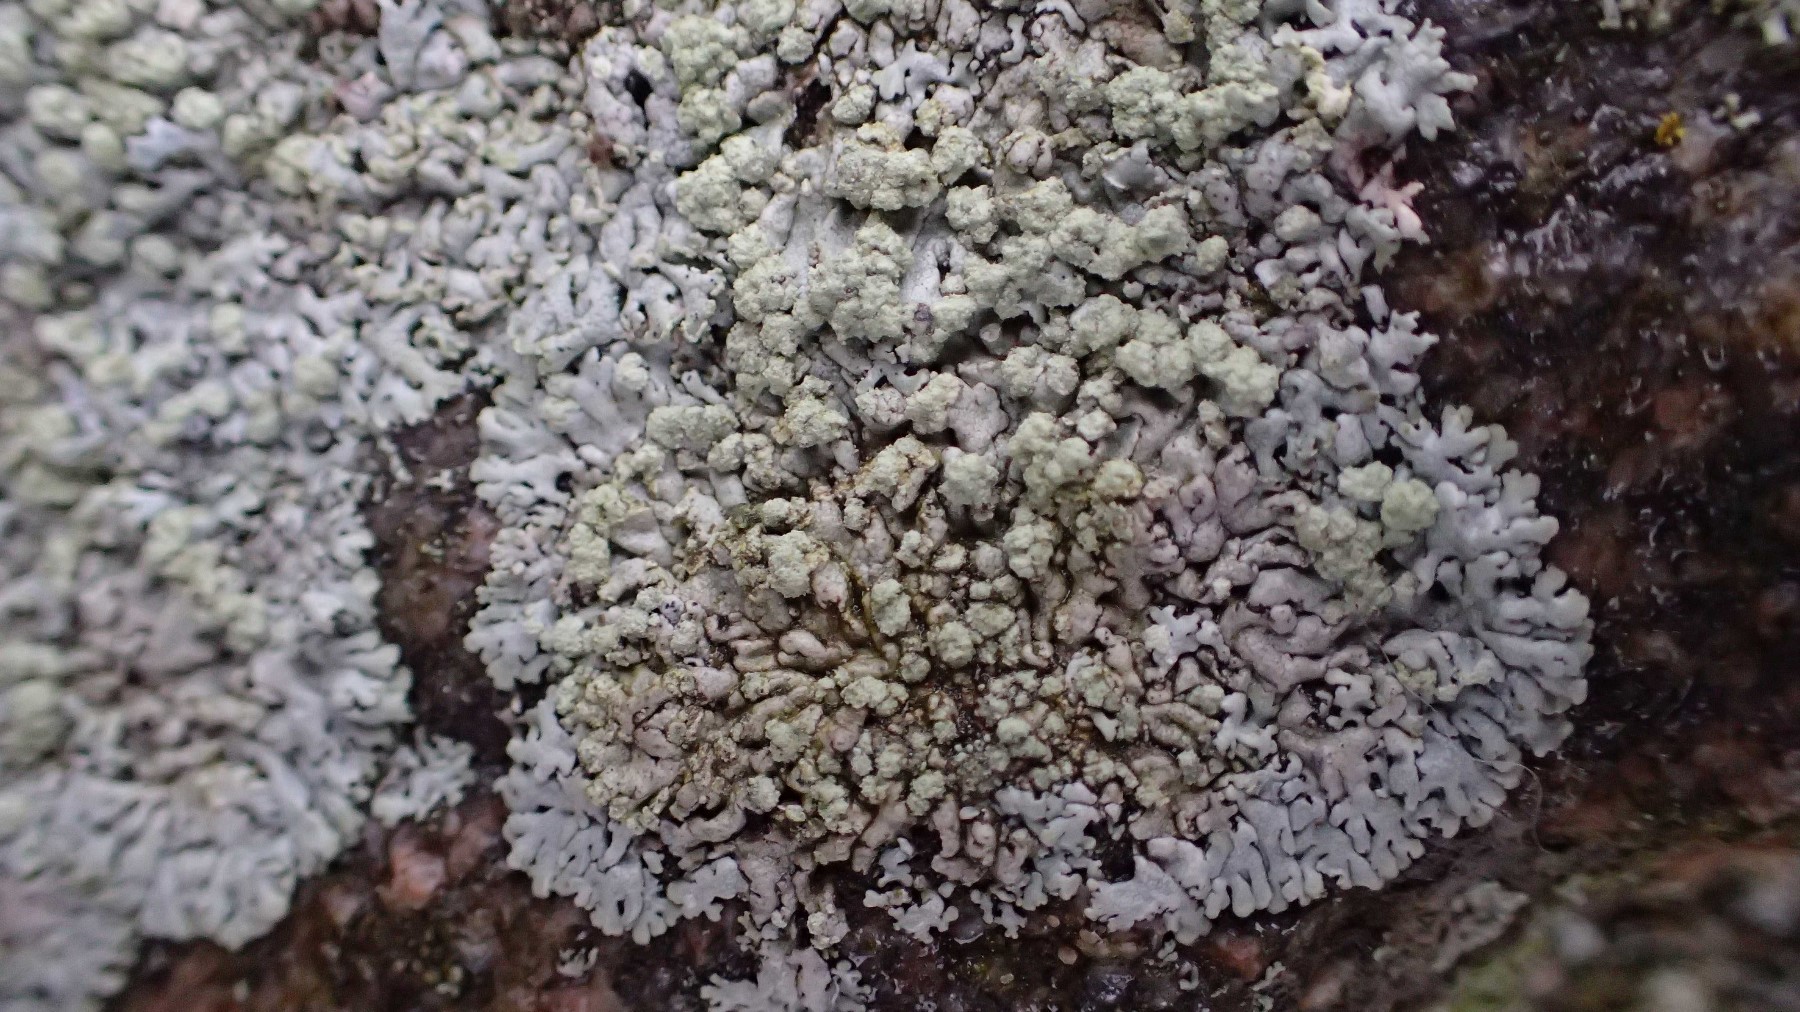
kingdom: Fungi
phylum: Ascomycota
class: Lecanoromycetes
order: Caliciales
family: Physciaceae
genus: Physcia
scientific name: Physcia caesia
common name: blågrå rosetlav
